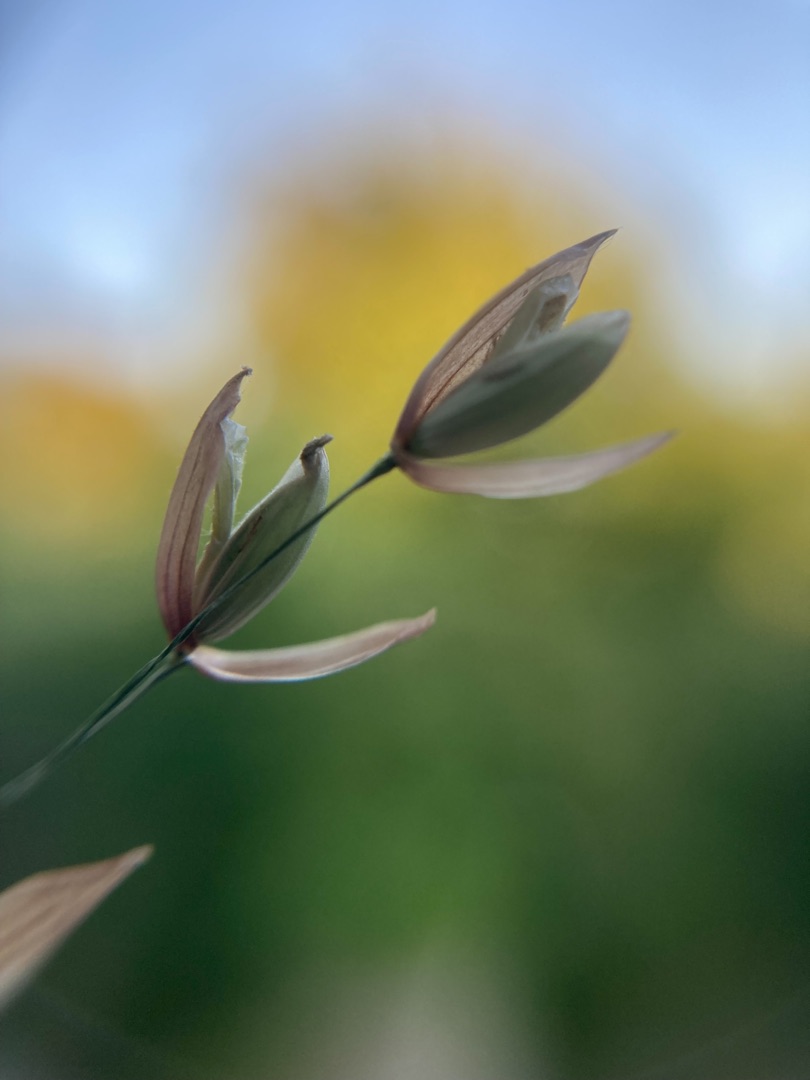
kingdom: Plantae
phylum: Tracheophyta
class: Liliopsida
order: Poales
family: Poaceae
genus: Melica
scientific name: Melica uniflora
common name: Enblomstret flitteraks
